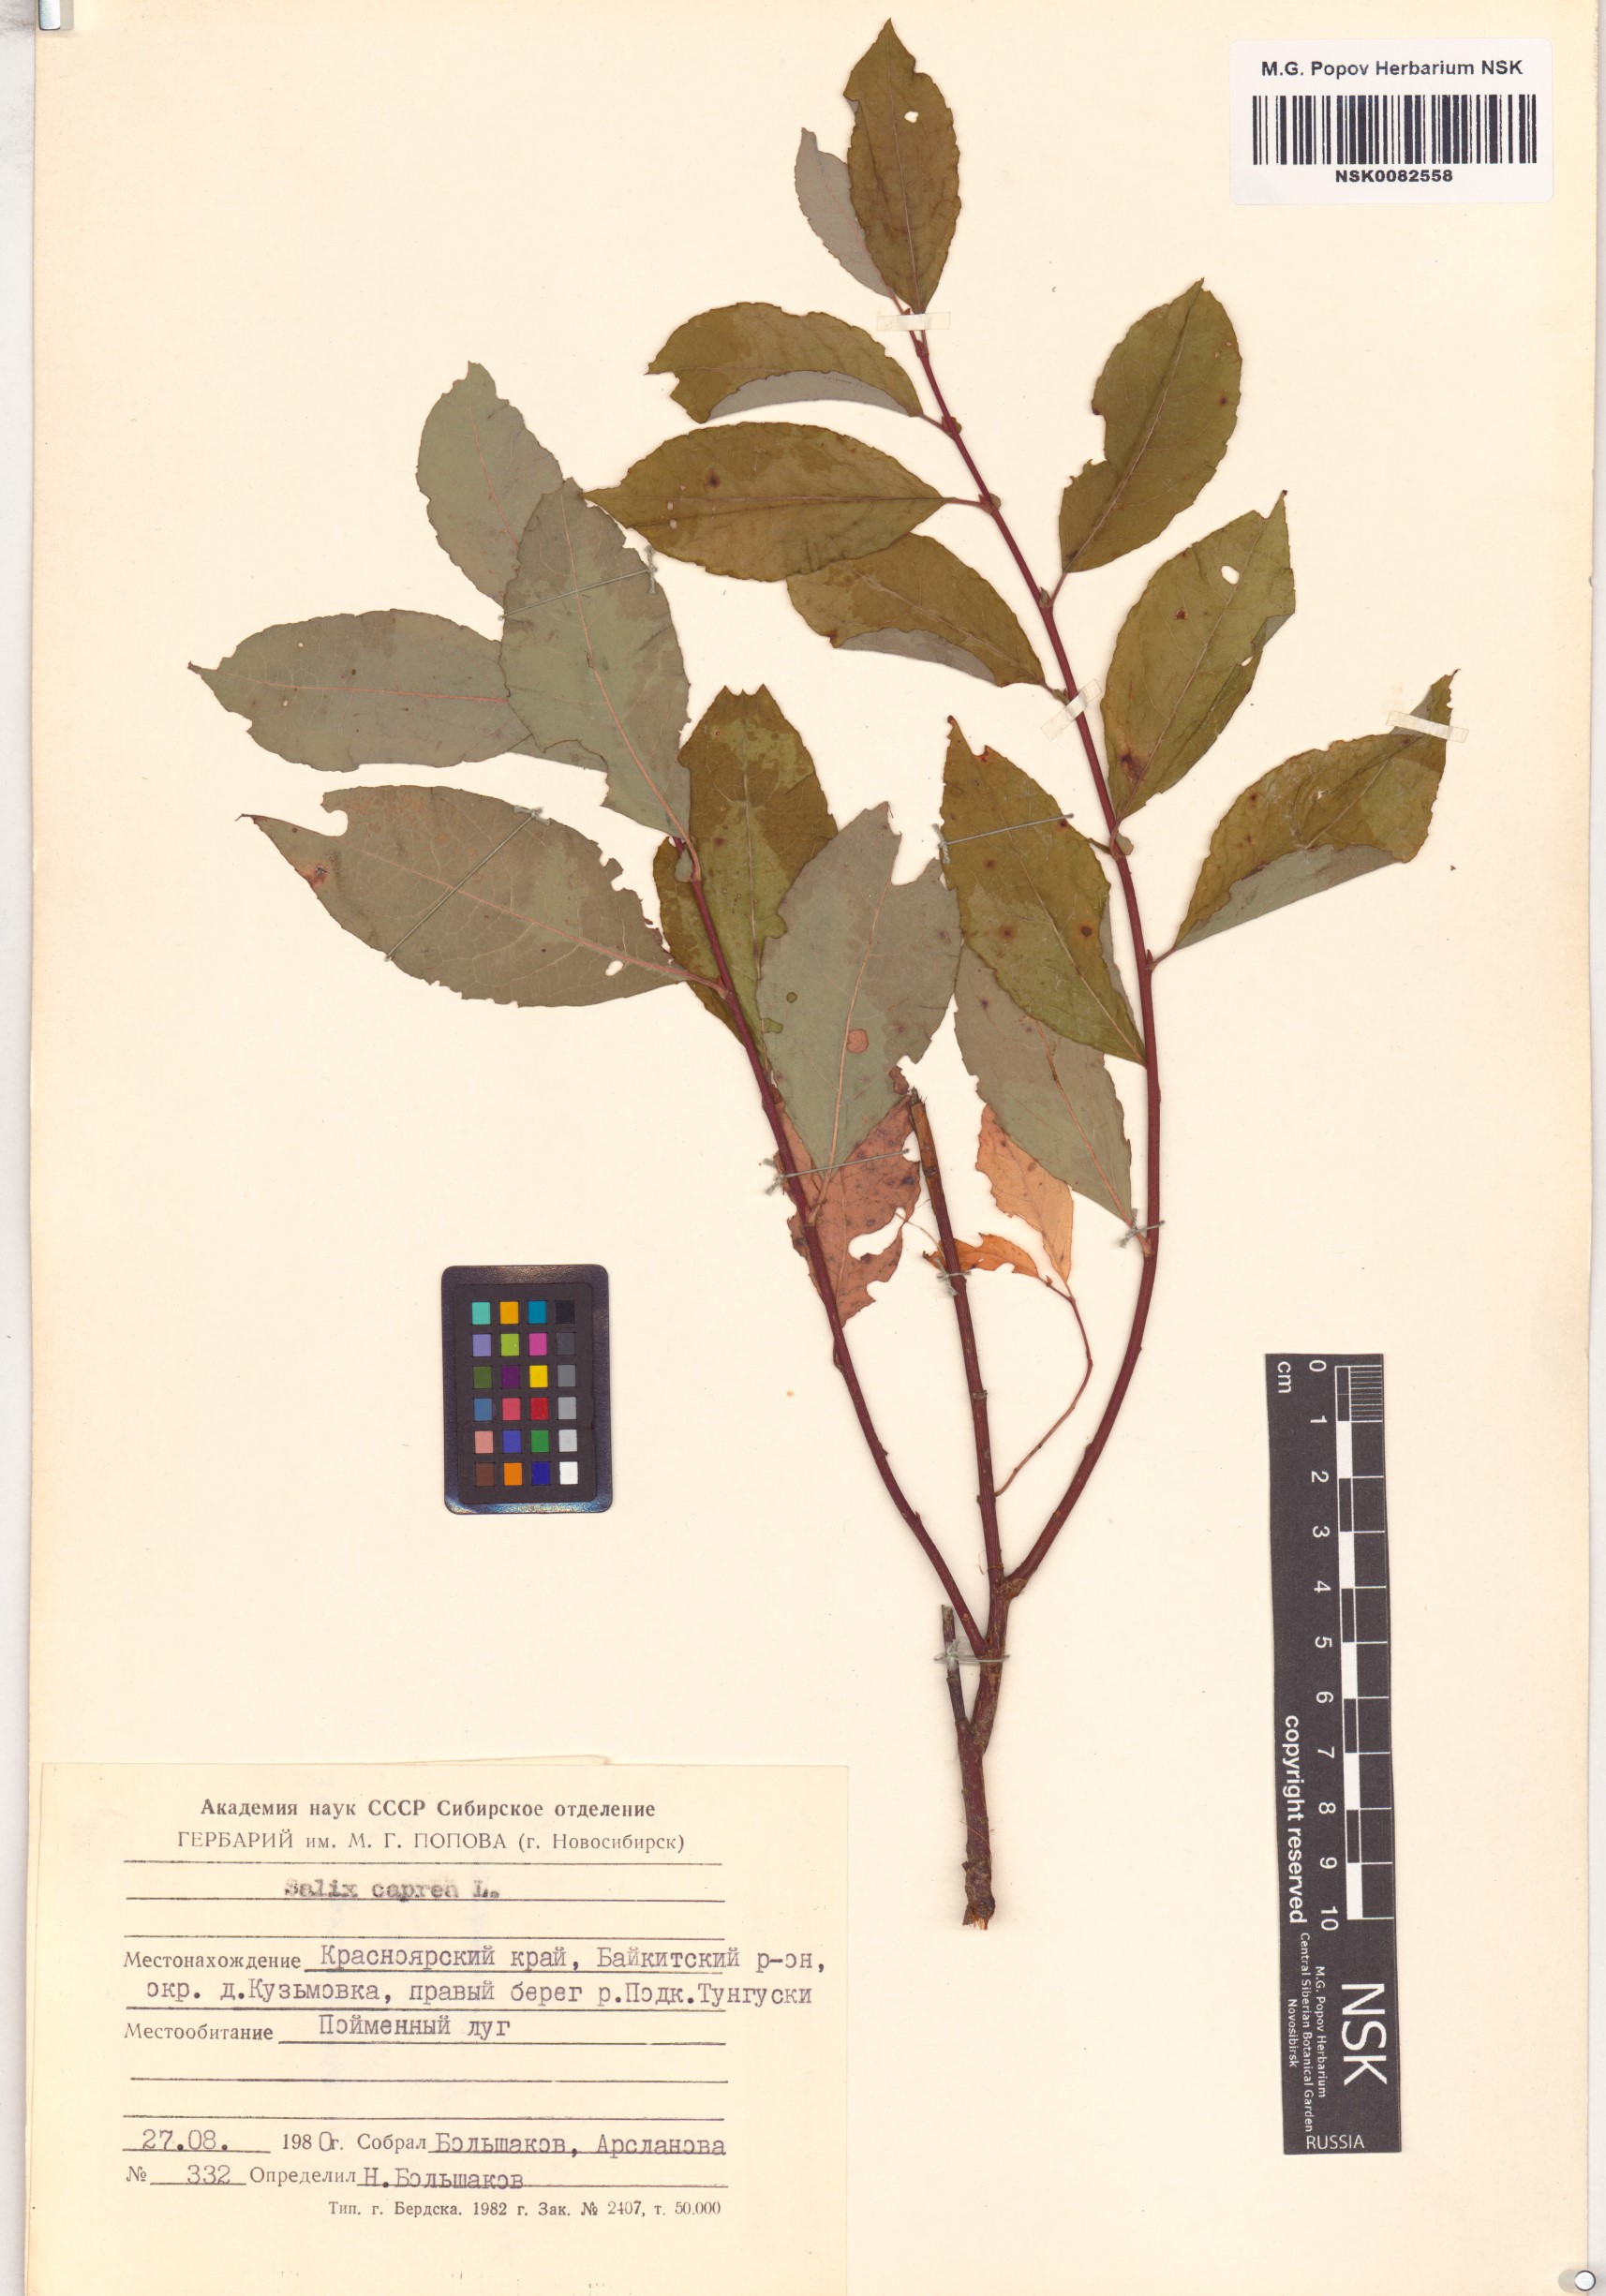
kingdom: Plantae
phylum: Tracheophyta
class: Magnoliopsida
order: Malpighiales
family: Salicaceae
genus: Salix
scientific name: Salix caprea
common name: Goat willow
